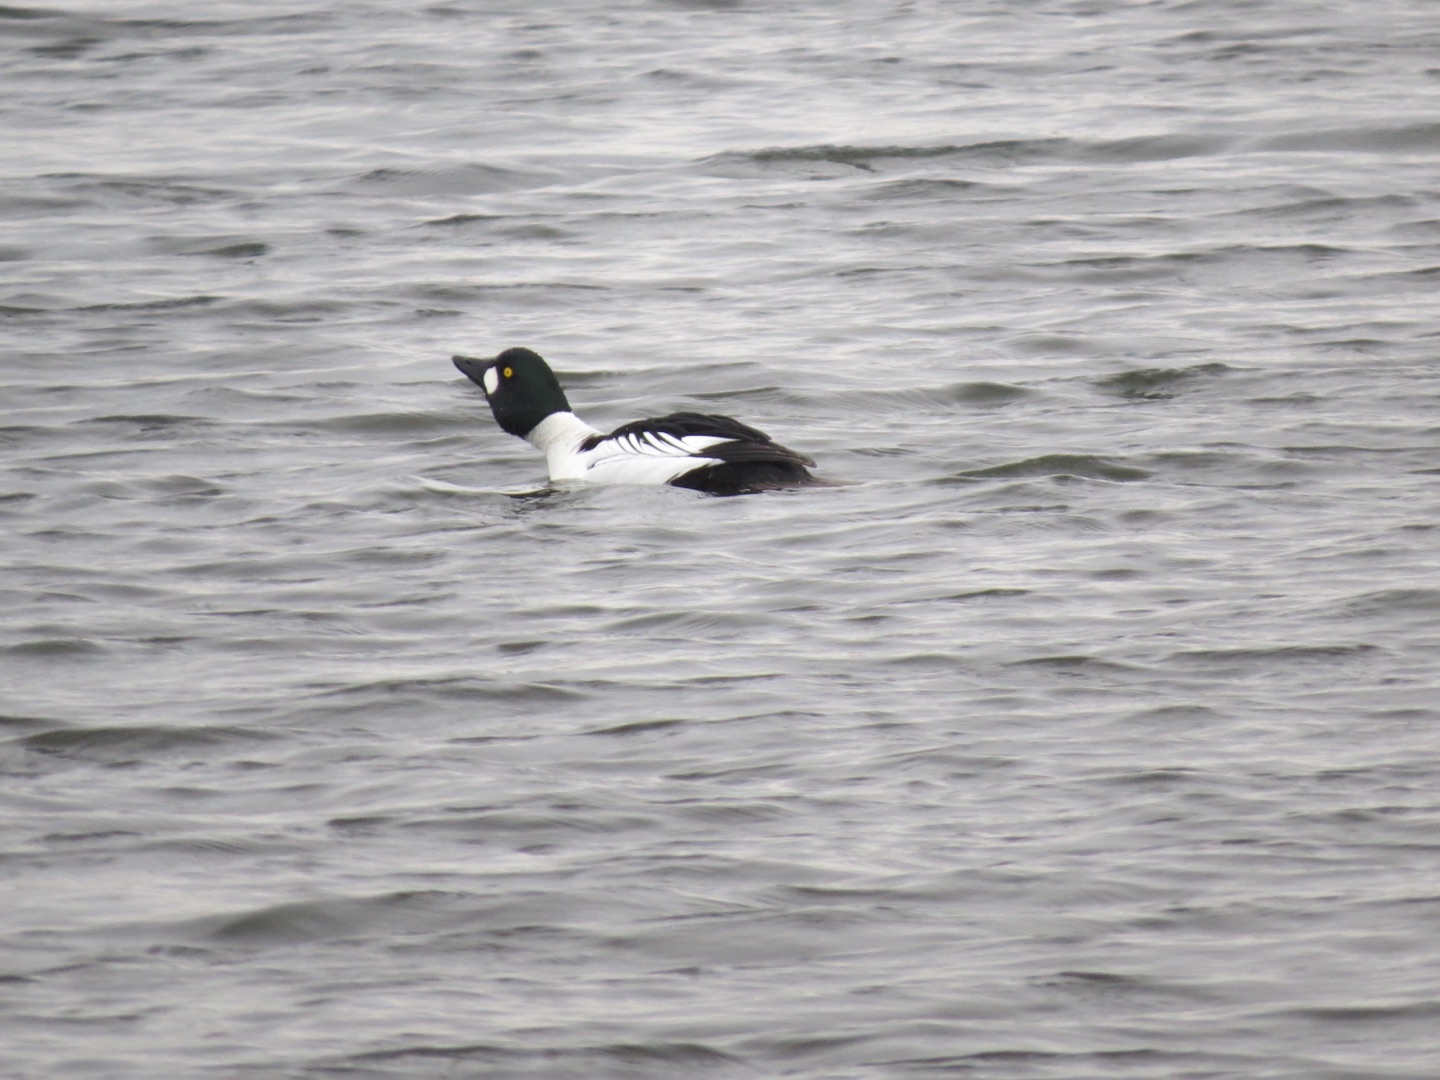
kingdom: Animalia
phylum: Chordata
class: Aves
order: Anseriformes
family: Anatidae
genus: Bucephala
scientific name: Bucephala clangula
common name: Hvinand
